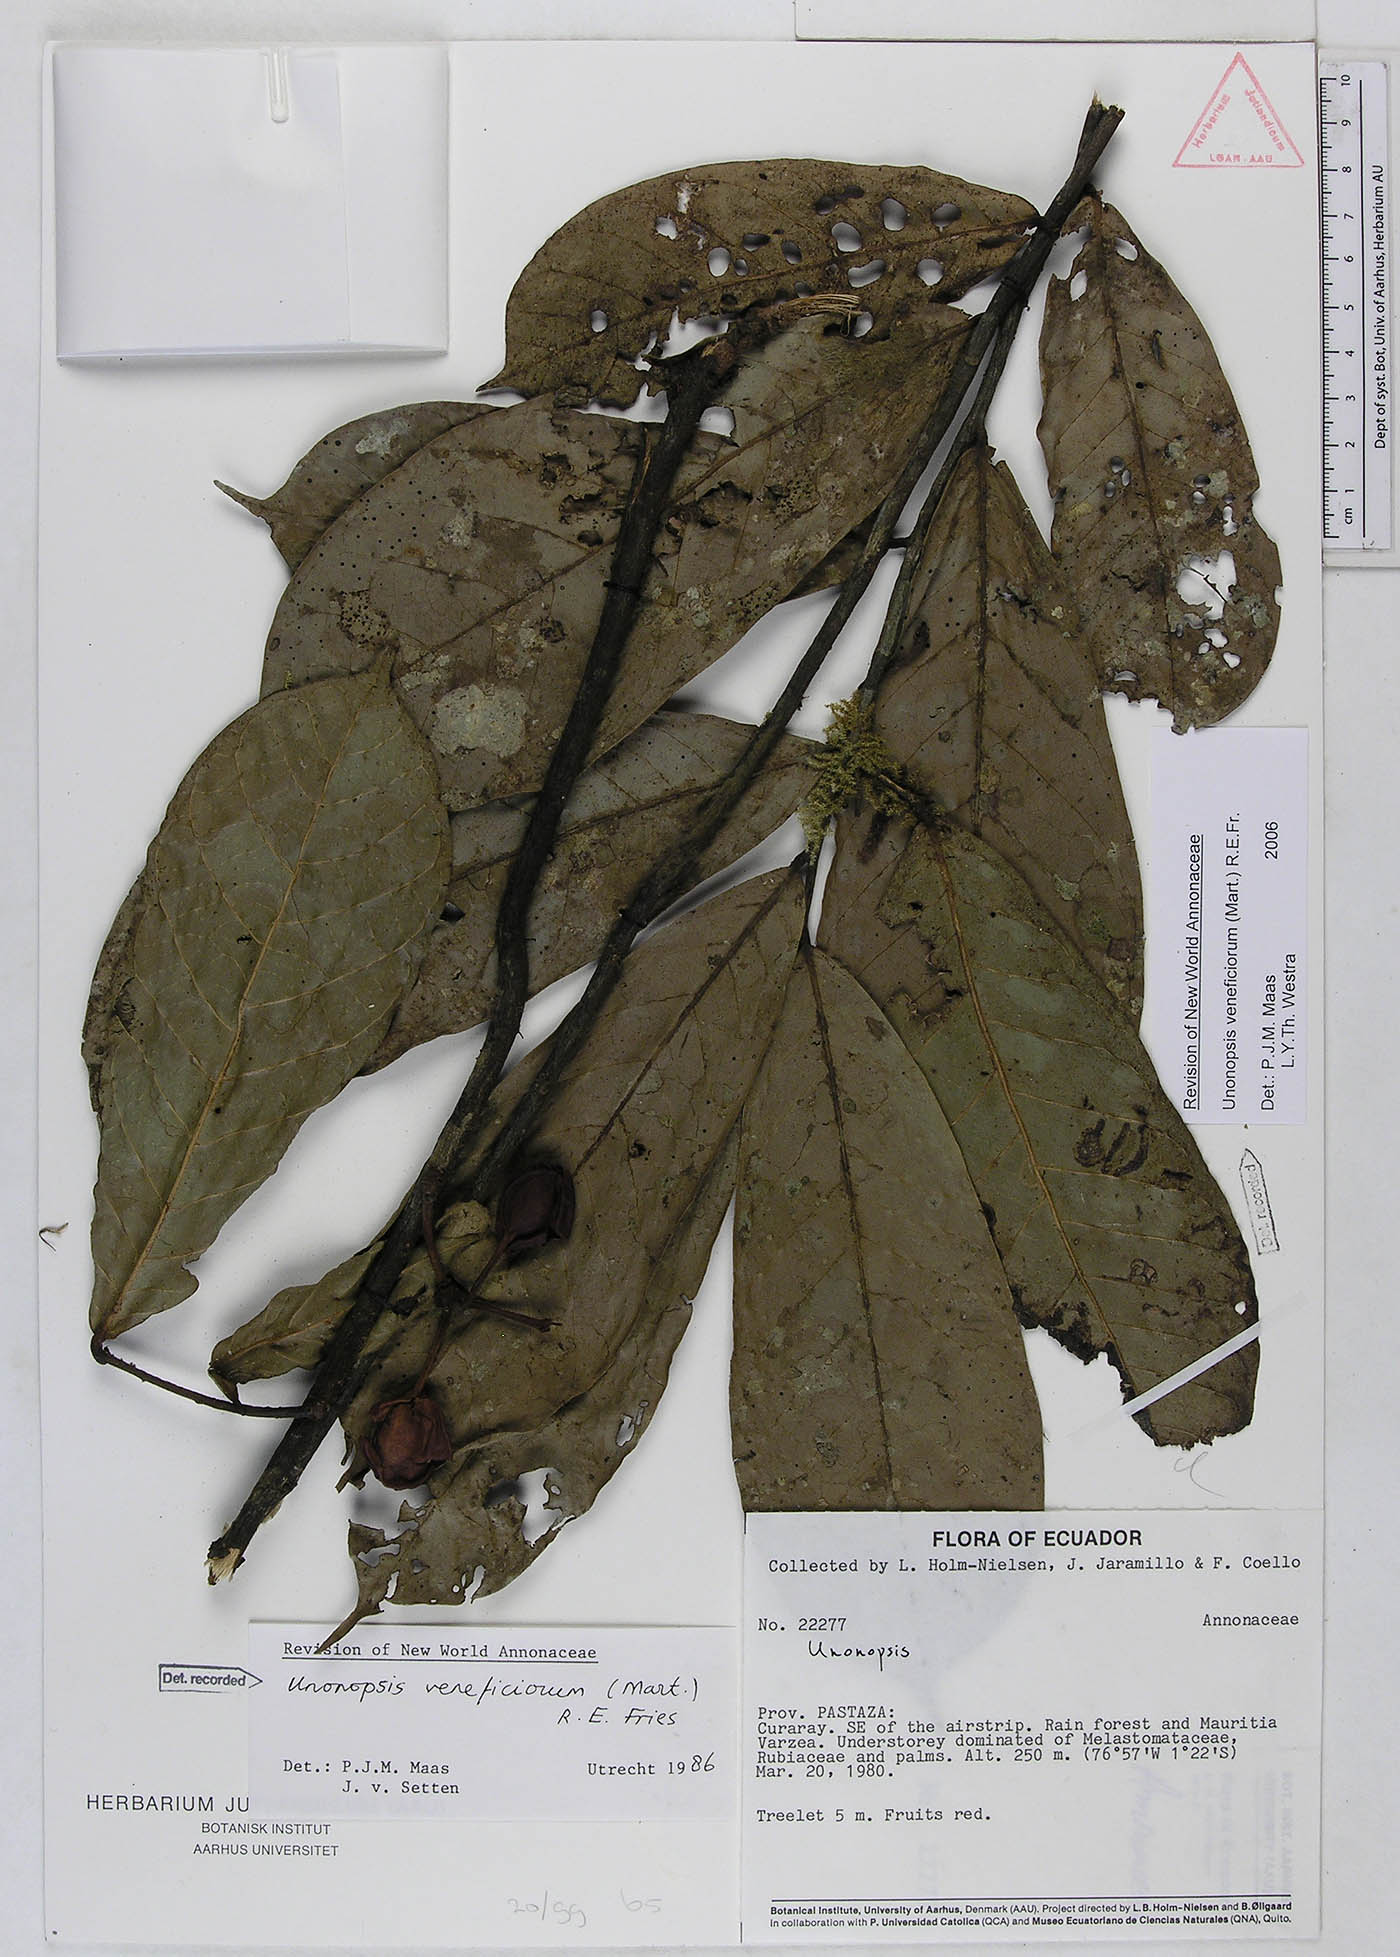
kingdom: Plantae
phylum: Tracheophyta
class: Magnoliopsida
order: Magnoliales
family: Annonaceae
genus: Unonopsis
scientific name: Unonopsis veneficiorum
